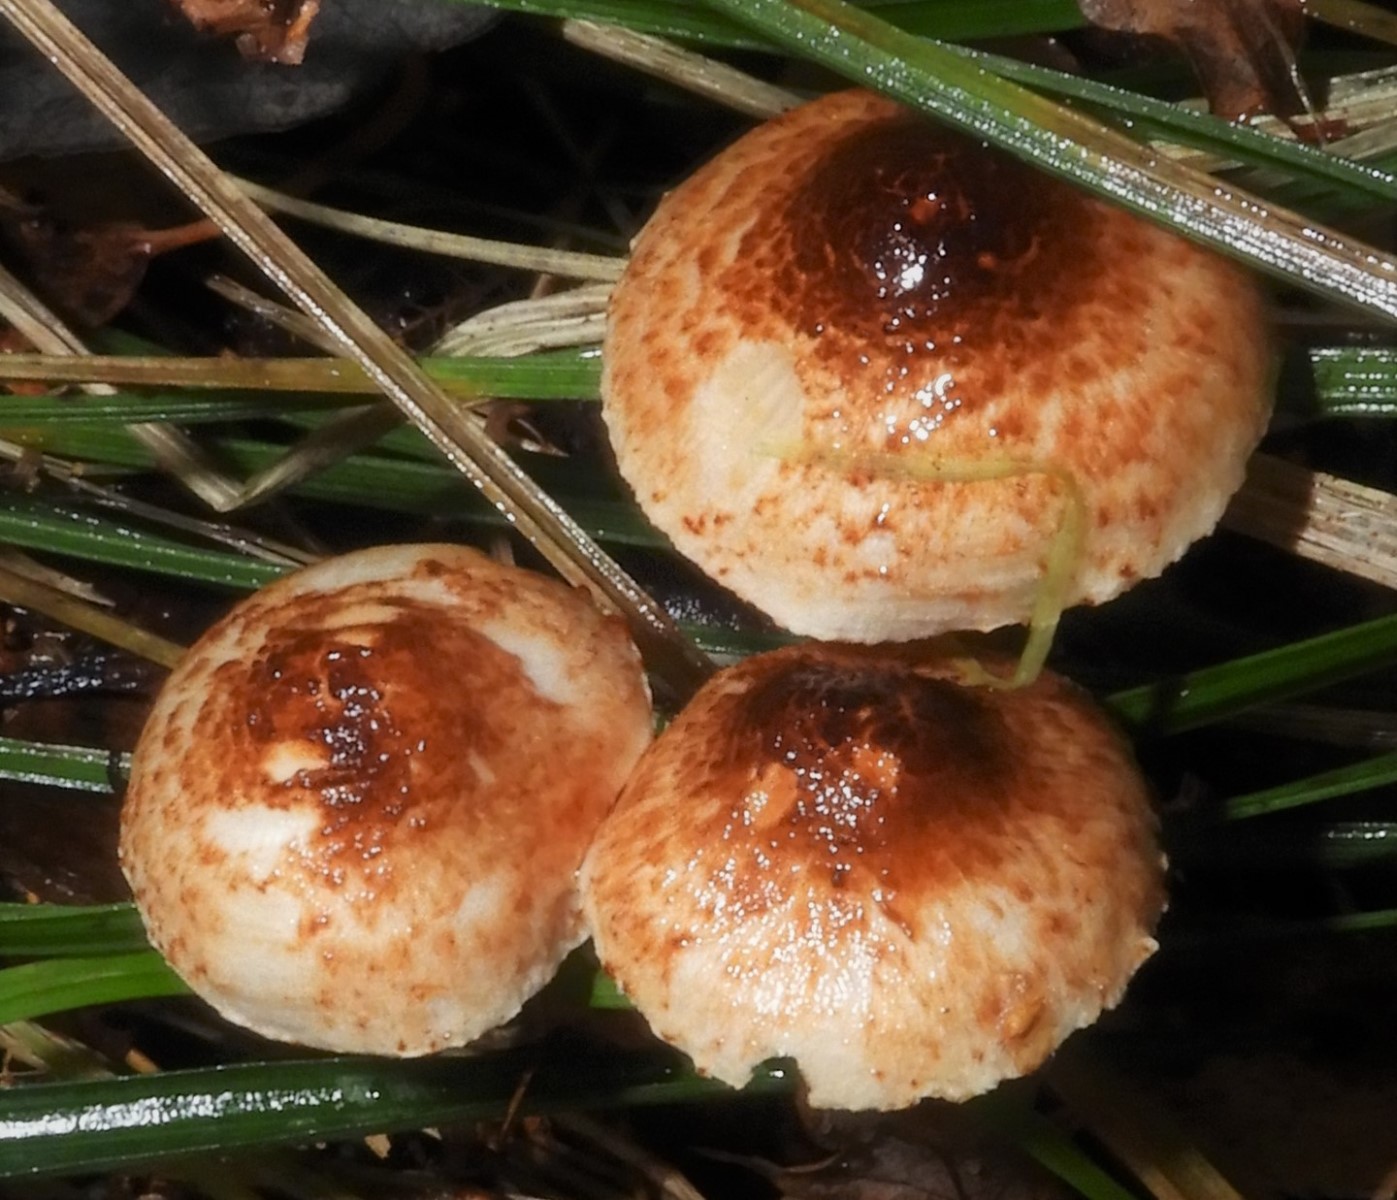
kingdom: Fungi
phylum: Basidiomycota
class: Agaricomycetes
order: Agaricales
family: Agaricaceae
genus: Lepiota
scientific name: Lepiota castanea
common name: kastaniebrun parasolhat
